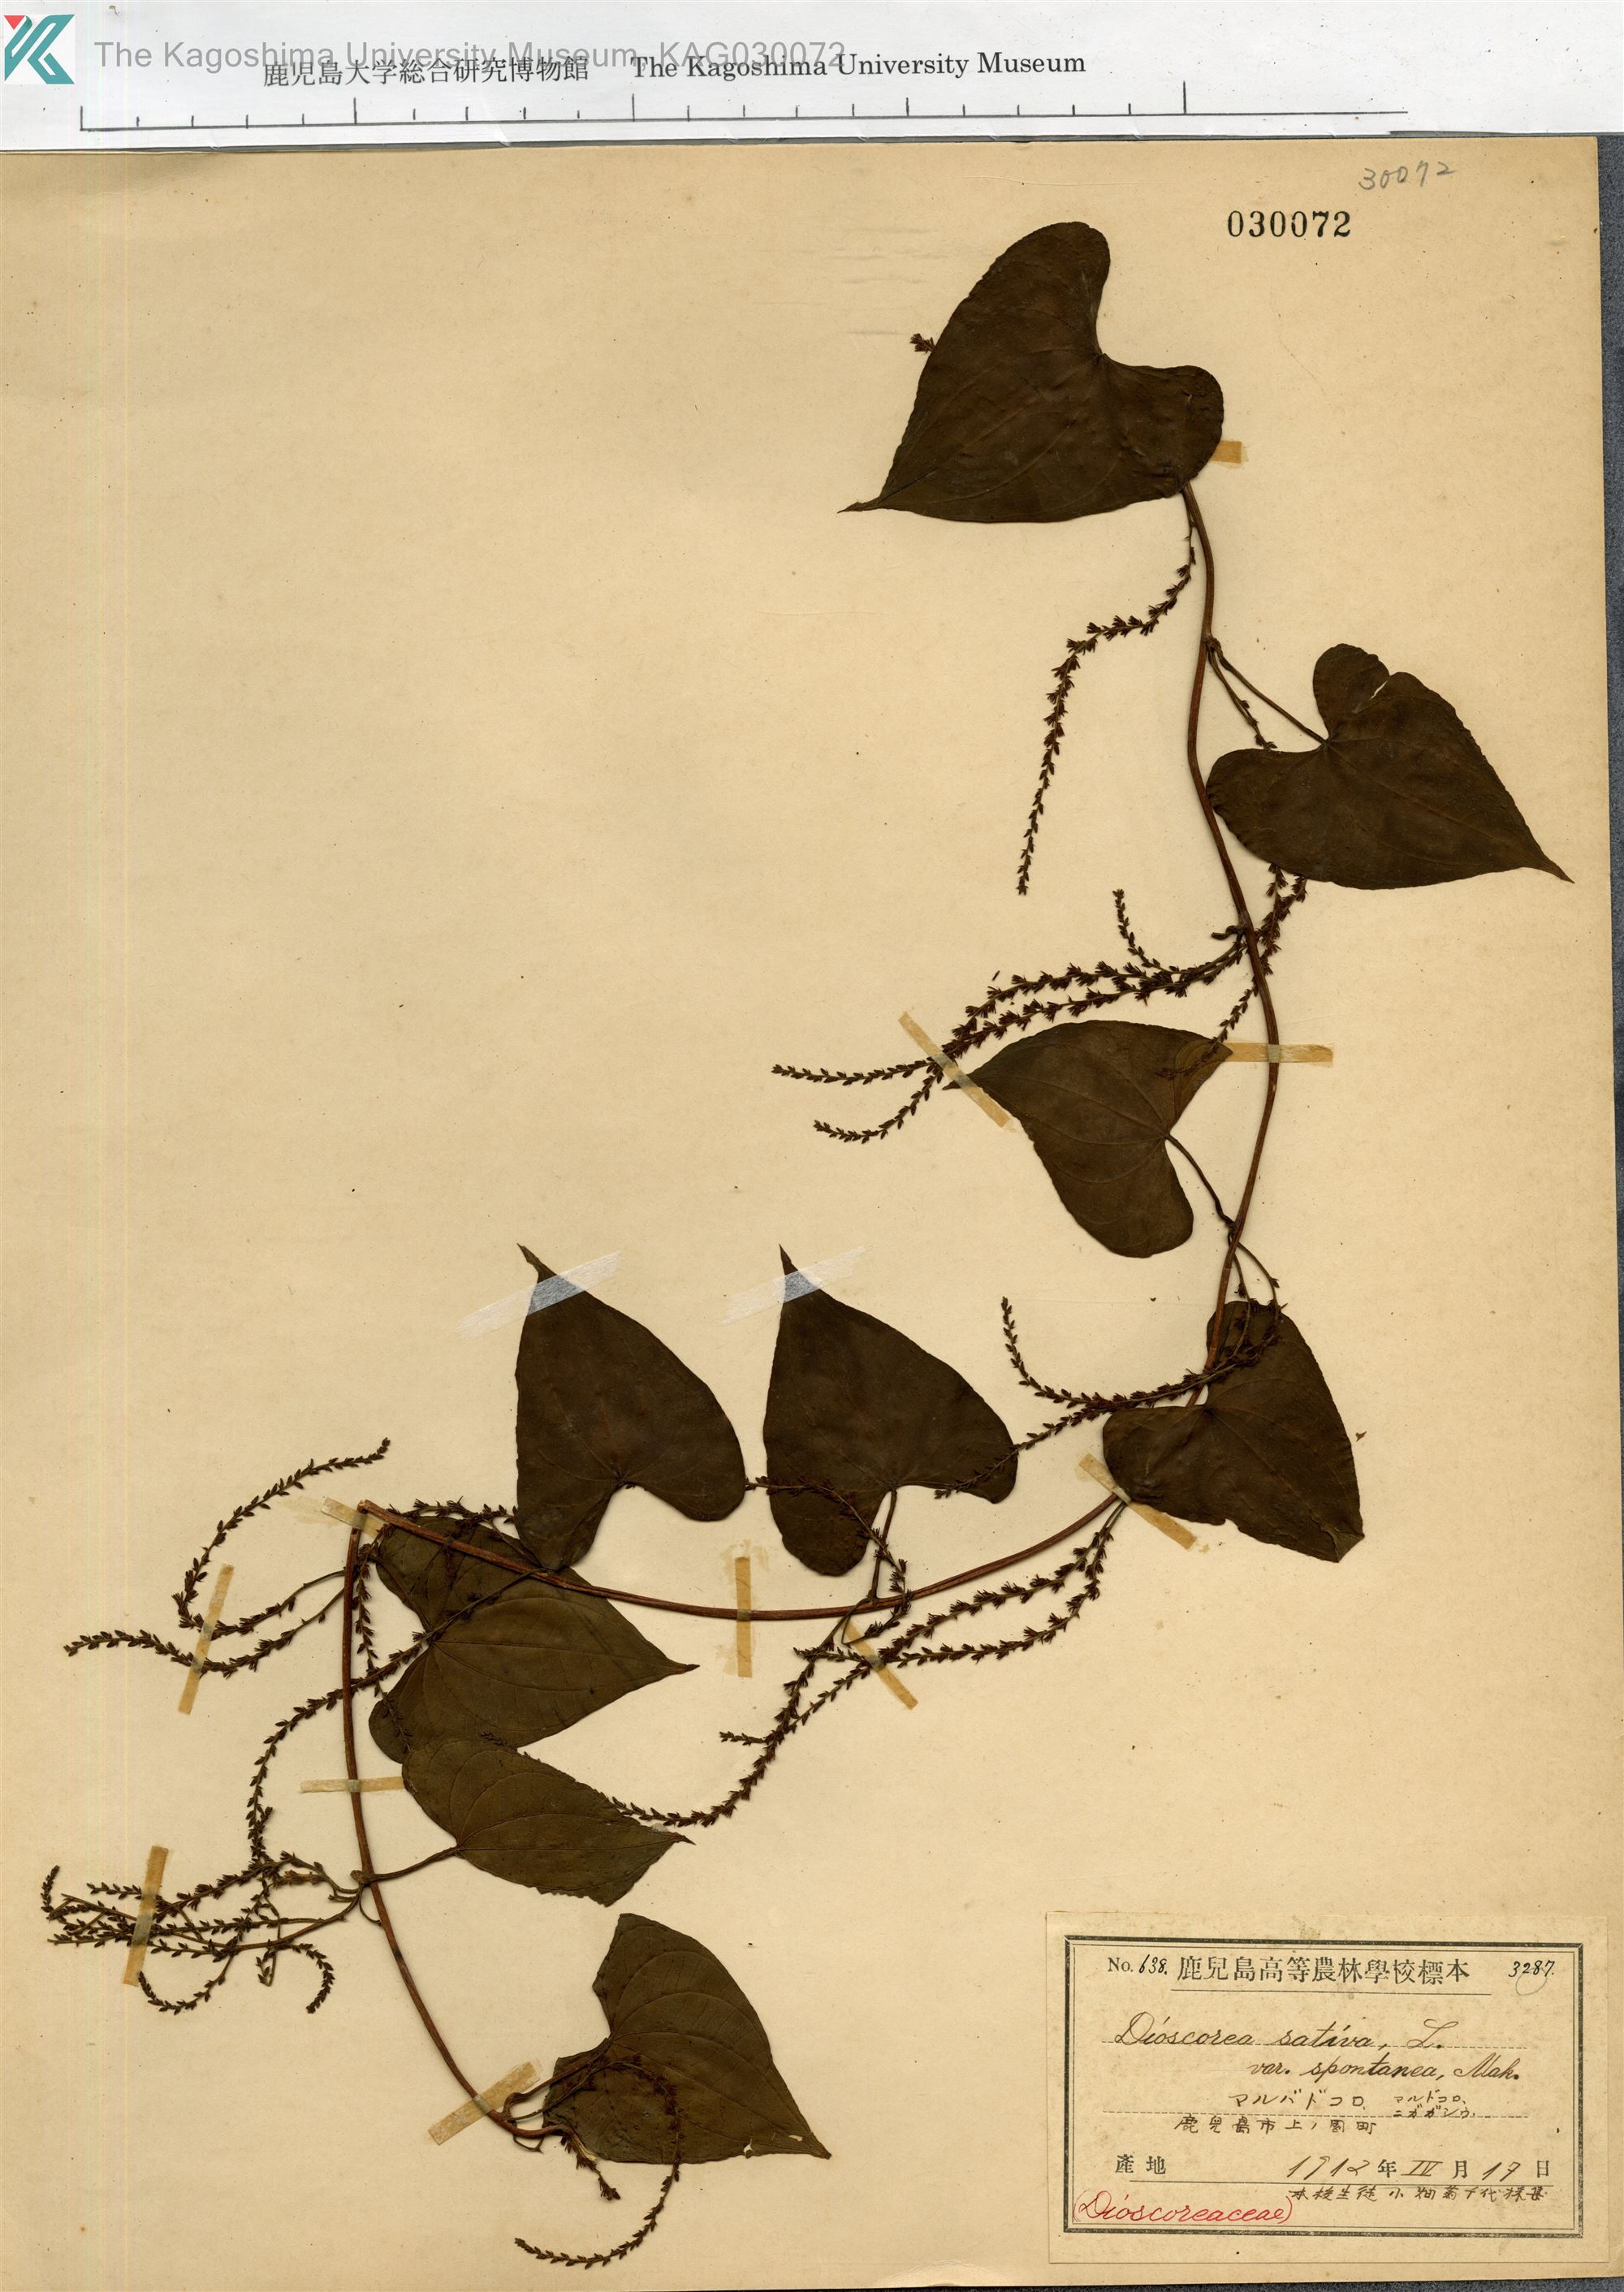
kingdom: Plantae
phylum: Tracheophyta
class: Liliopsida
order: Dioscoreales
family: Dioscoreaceae
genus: Dioscorea
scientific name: Dioscorea bulbifera
